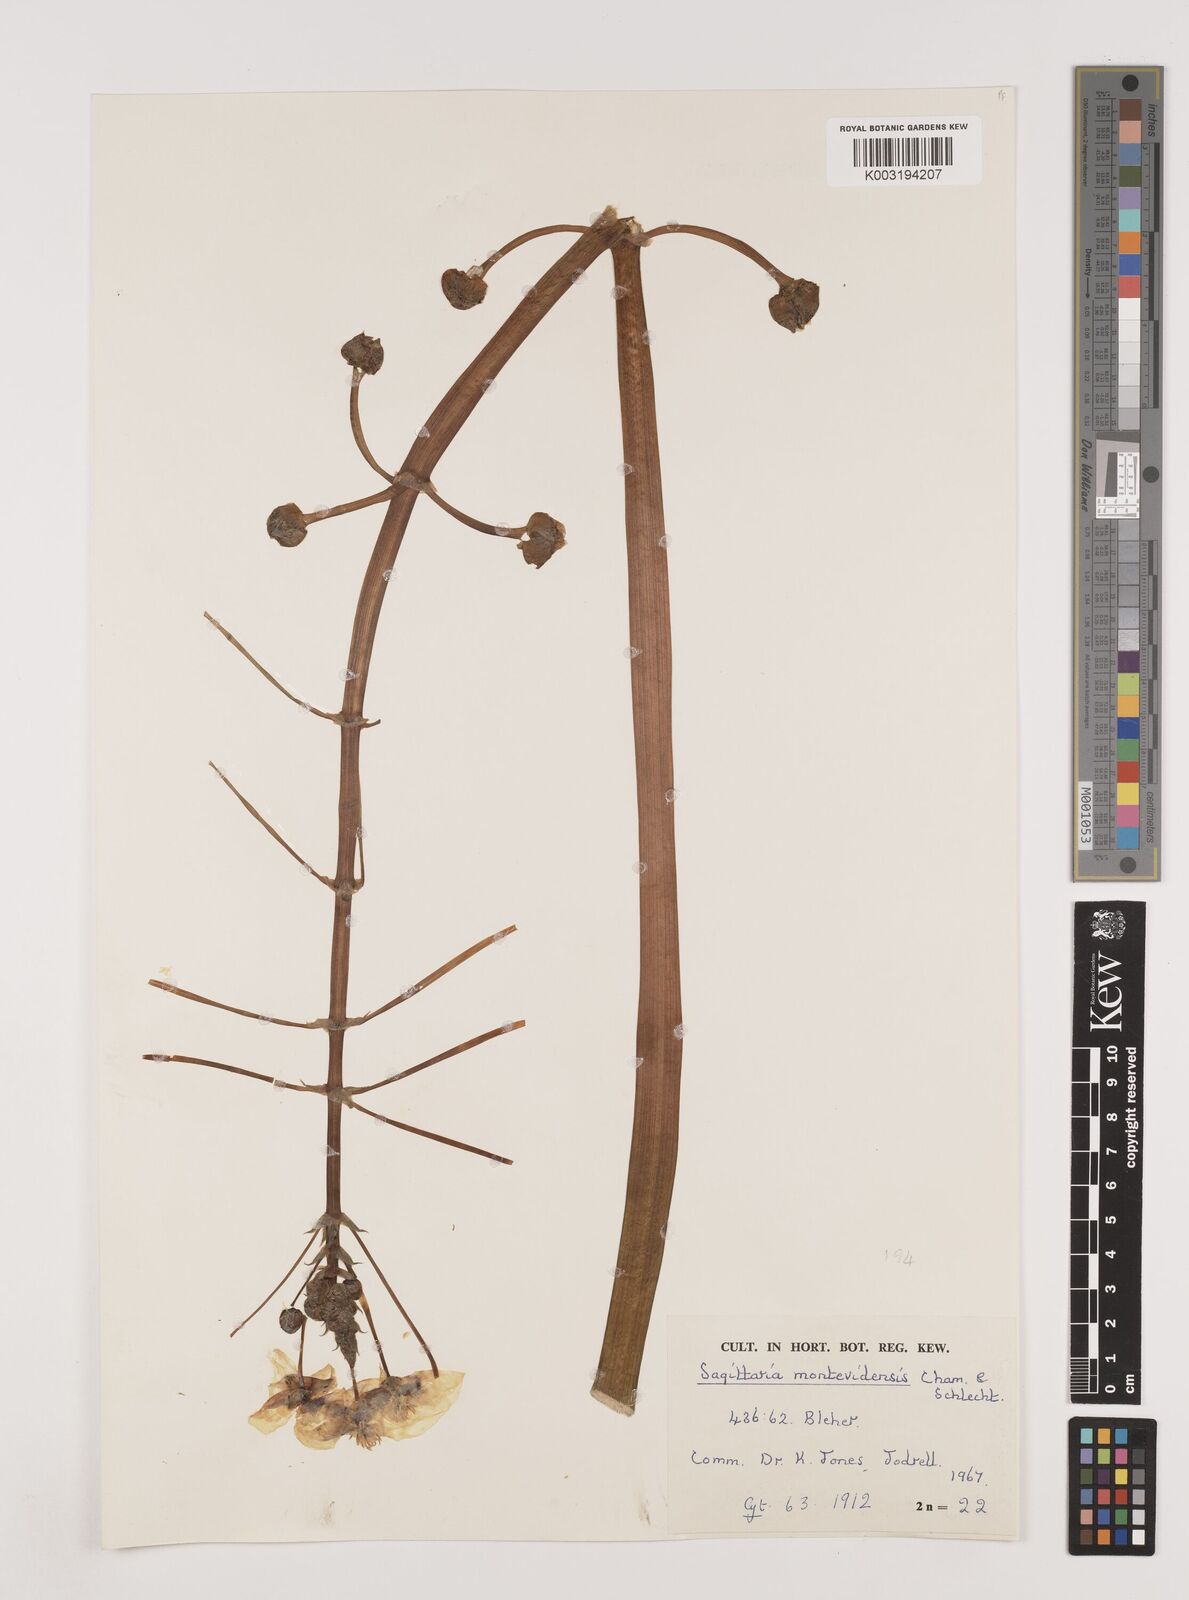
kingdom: Plantae
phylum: Tracheophyta
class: Liliopsida
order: Alismatales
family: Alismataceae
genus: Sagittaria
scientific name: Sagittaria montevidensis
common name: Giant arrowhead
